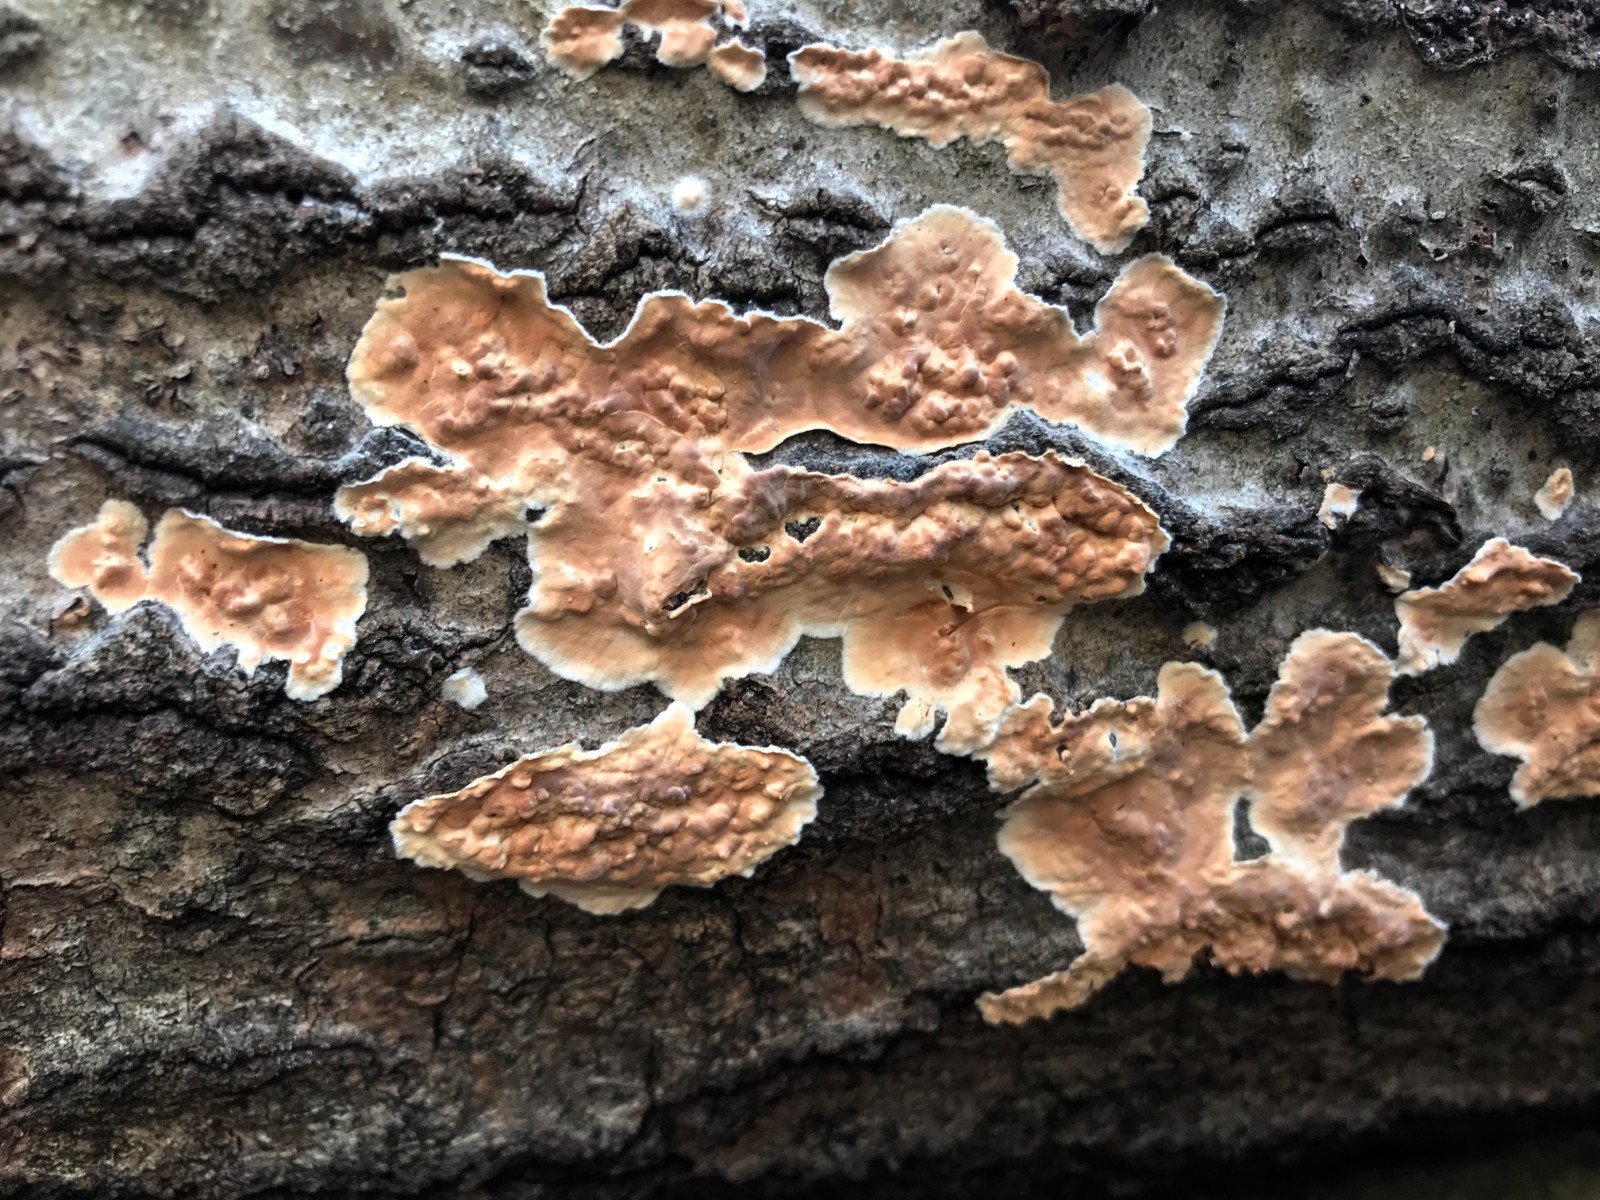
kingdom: Fungi
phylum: Basidiomycota
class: Agaricomycetes
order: Russulales
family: Peniophoraceae
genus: Peniophora
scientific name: Peniophora incarnata
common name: laksefarvet voksskind
